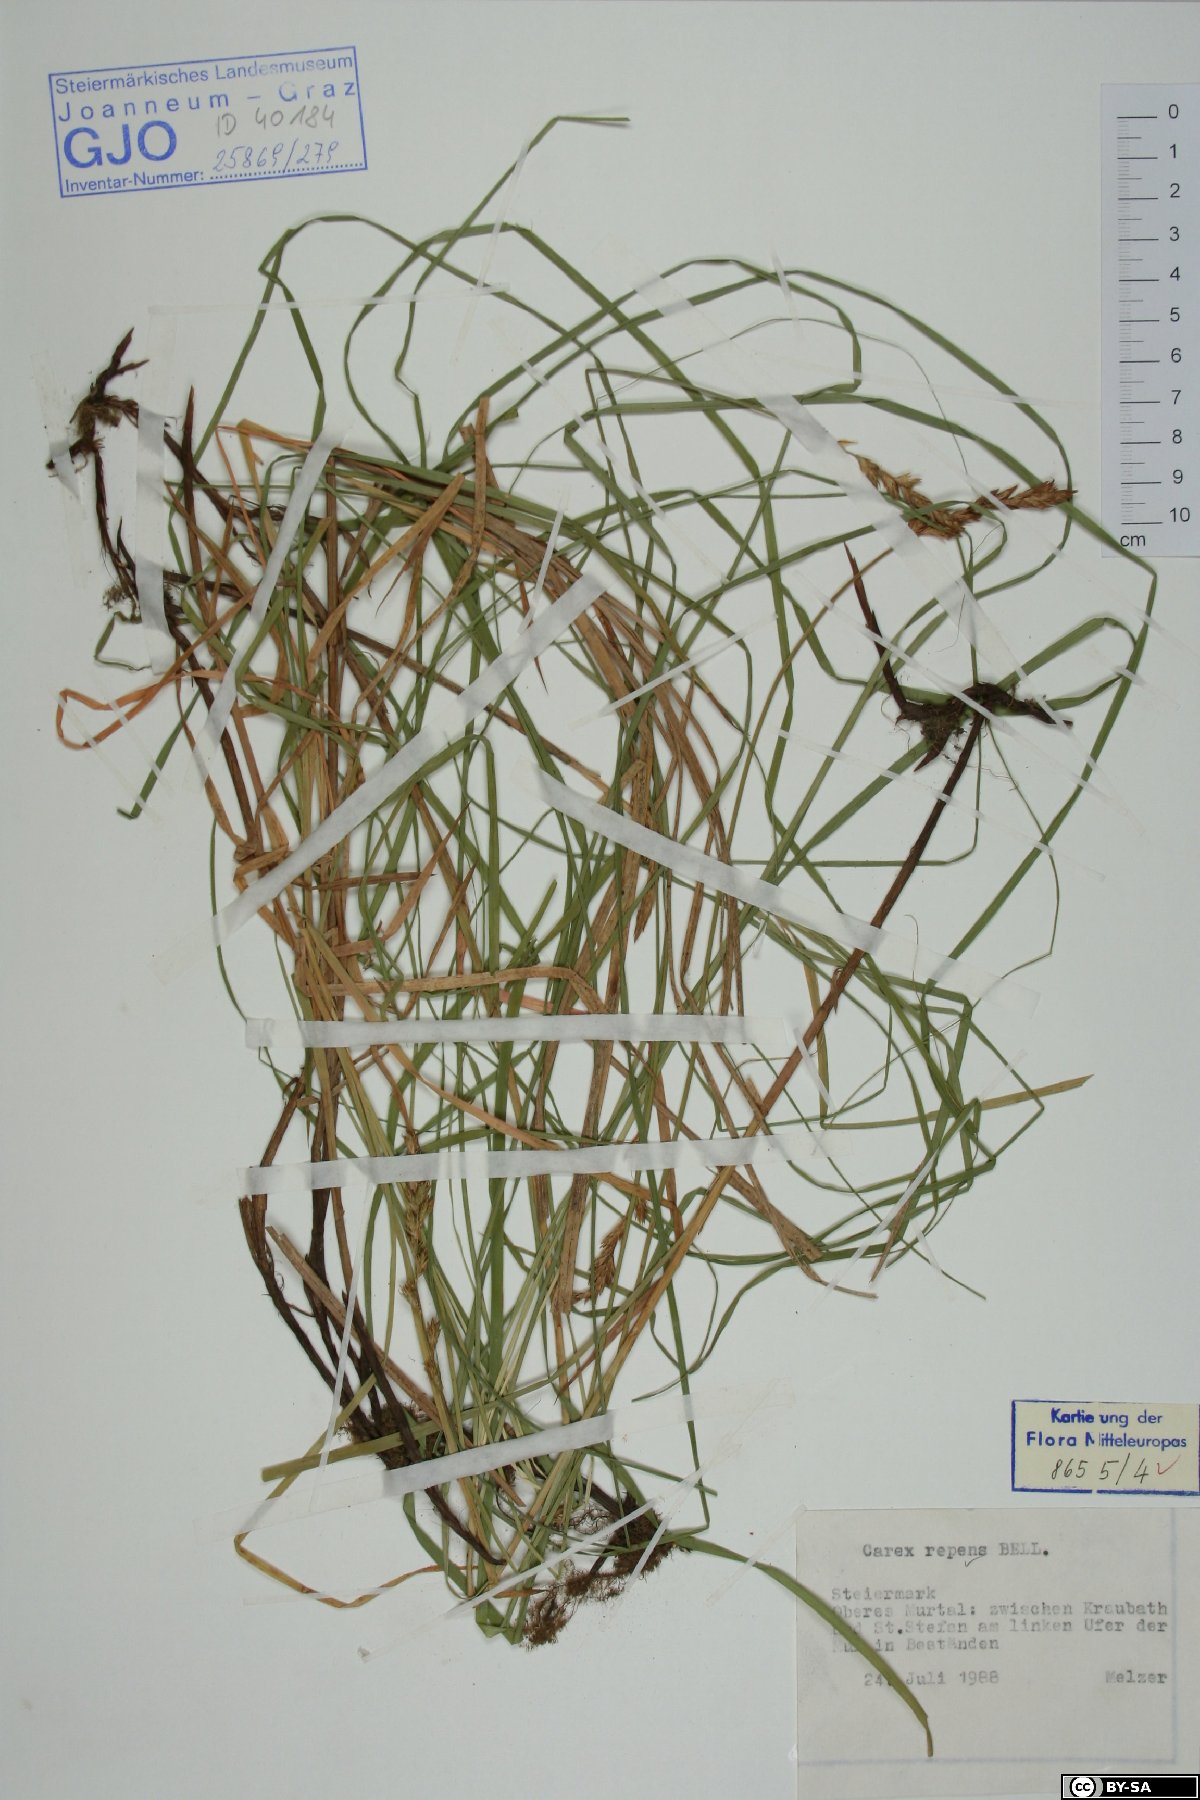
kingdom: Plantae
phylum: Tracheophyta
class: Liliopsida
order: Poales
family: Cyperaceae
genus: Carex
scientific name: Carex repens
